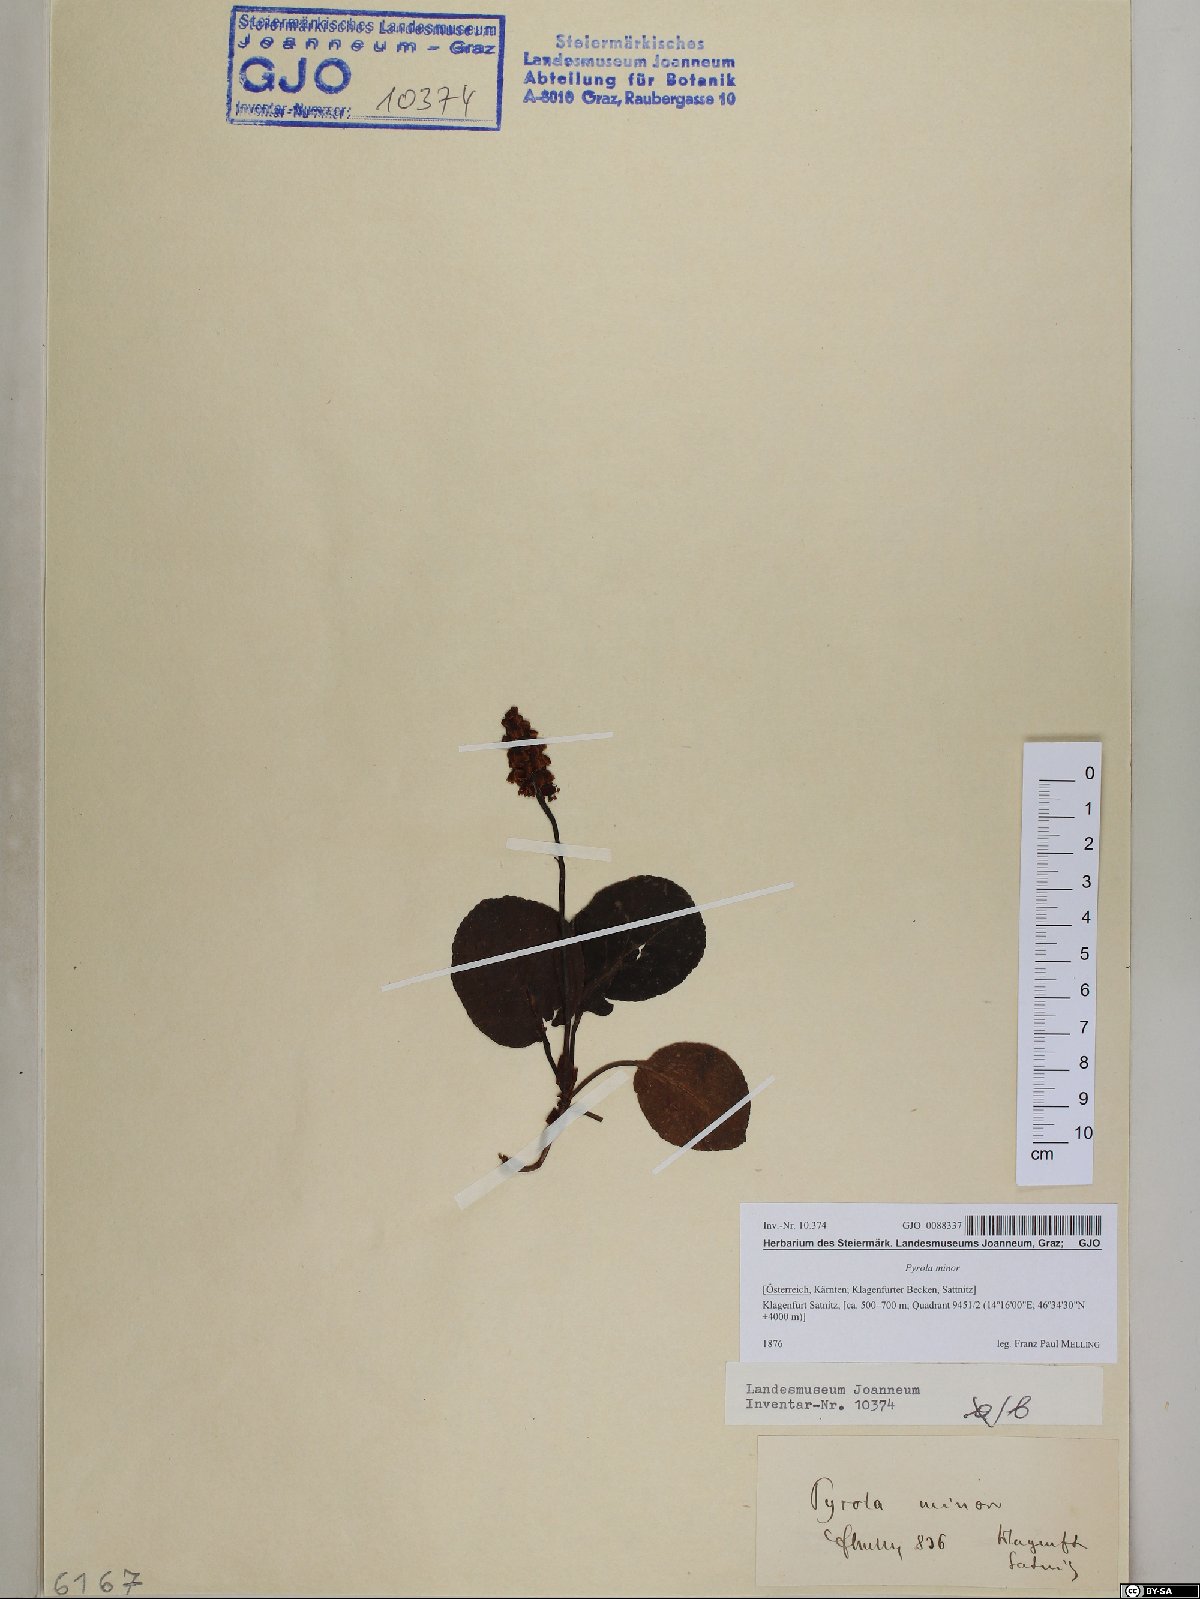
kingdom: Plantae
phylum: Tracheophyta
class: Magnoliopsida
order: Ericales
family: Ericaceae
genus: Pyrola
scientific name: Pyrola minor
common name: Common wintergreen
